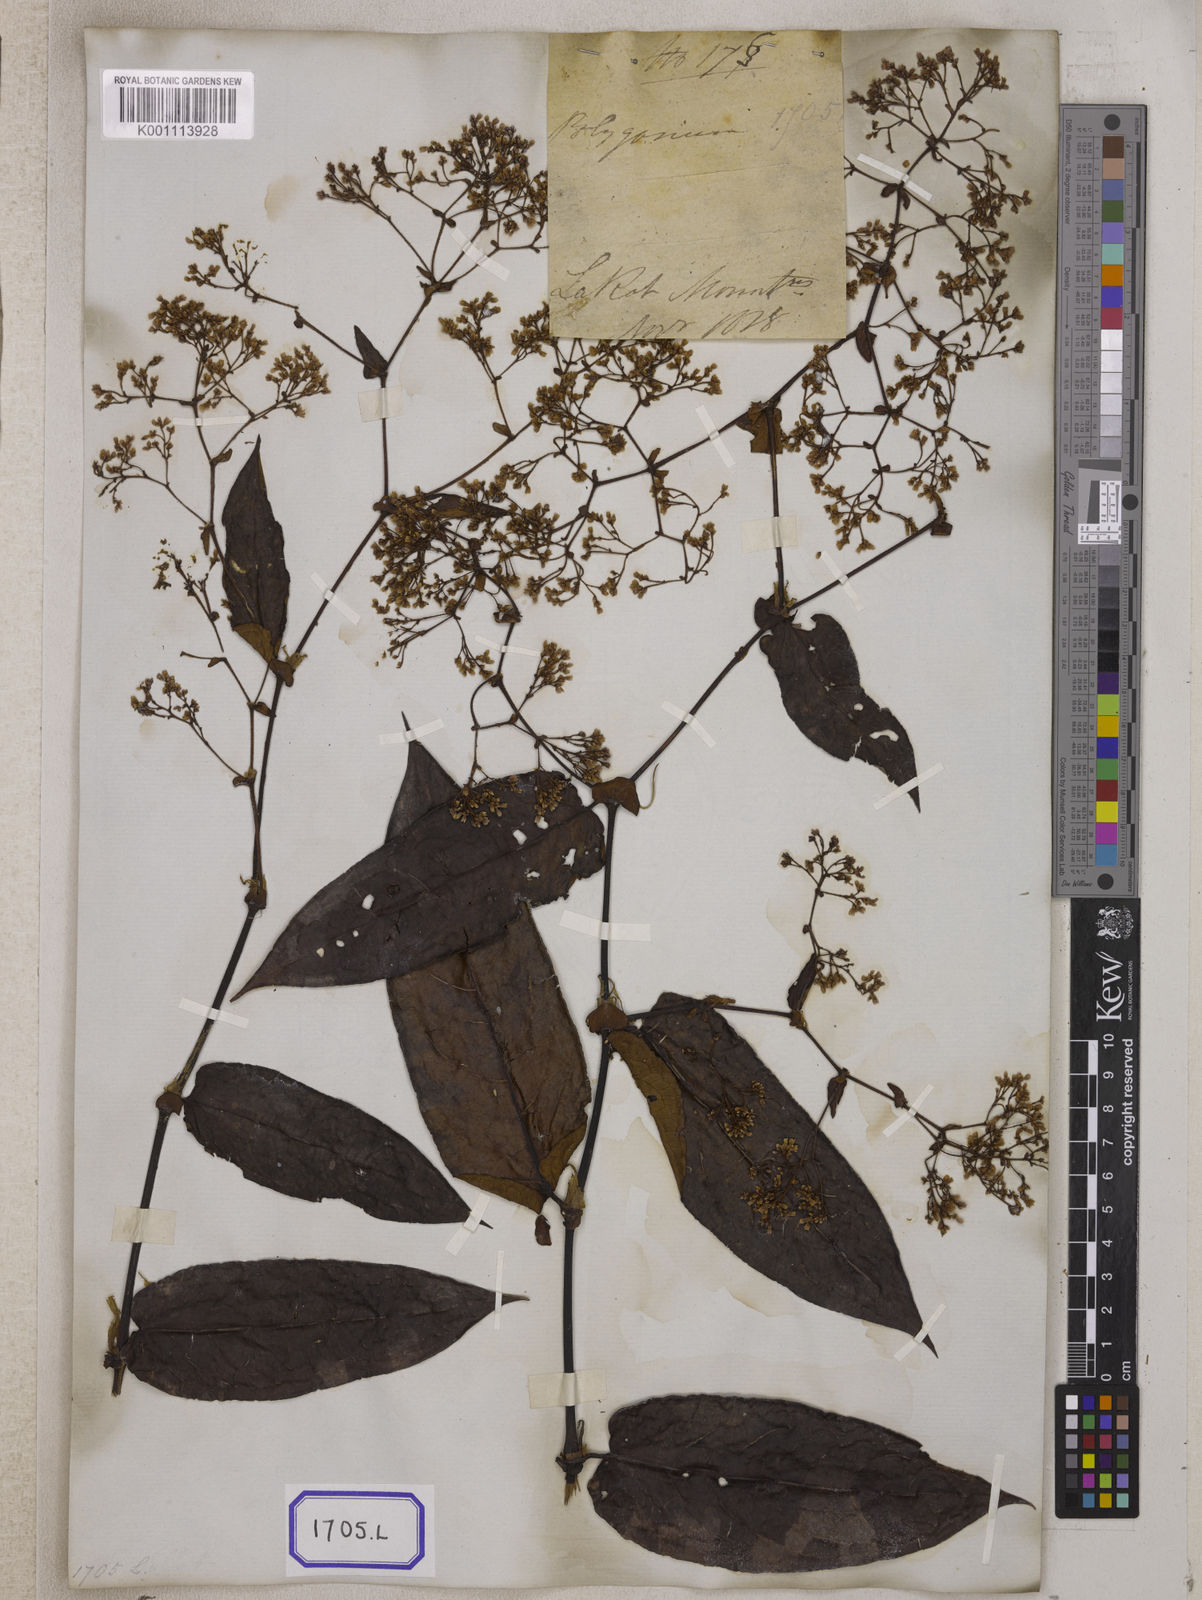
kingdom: Plantae
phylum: Tracheophyta
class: Magnoliopsida
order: Caryophyllales
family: Polygonaceae
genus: Persicaria
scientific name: Persicaria chinensis
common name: Chinese knotweed
